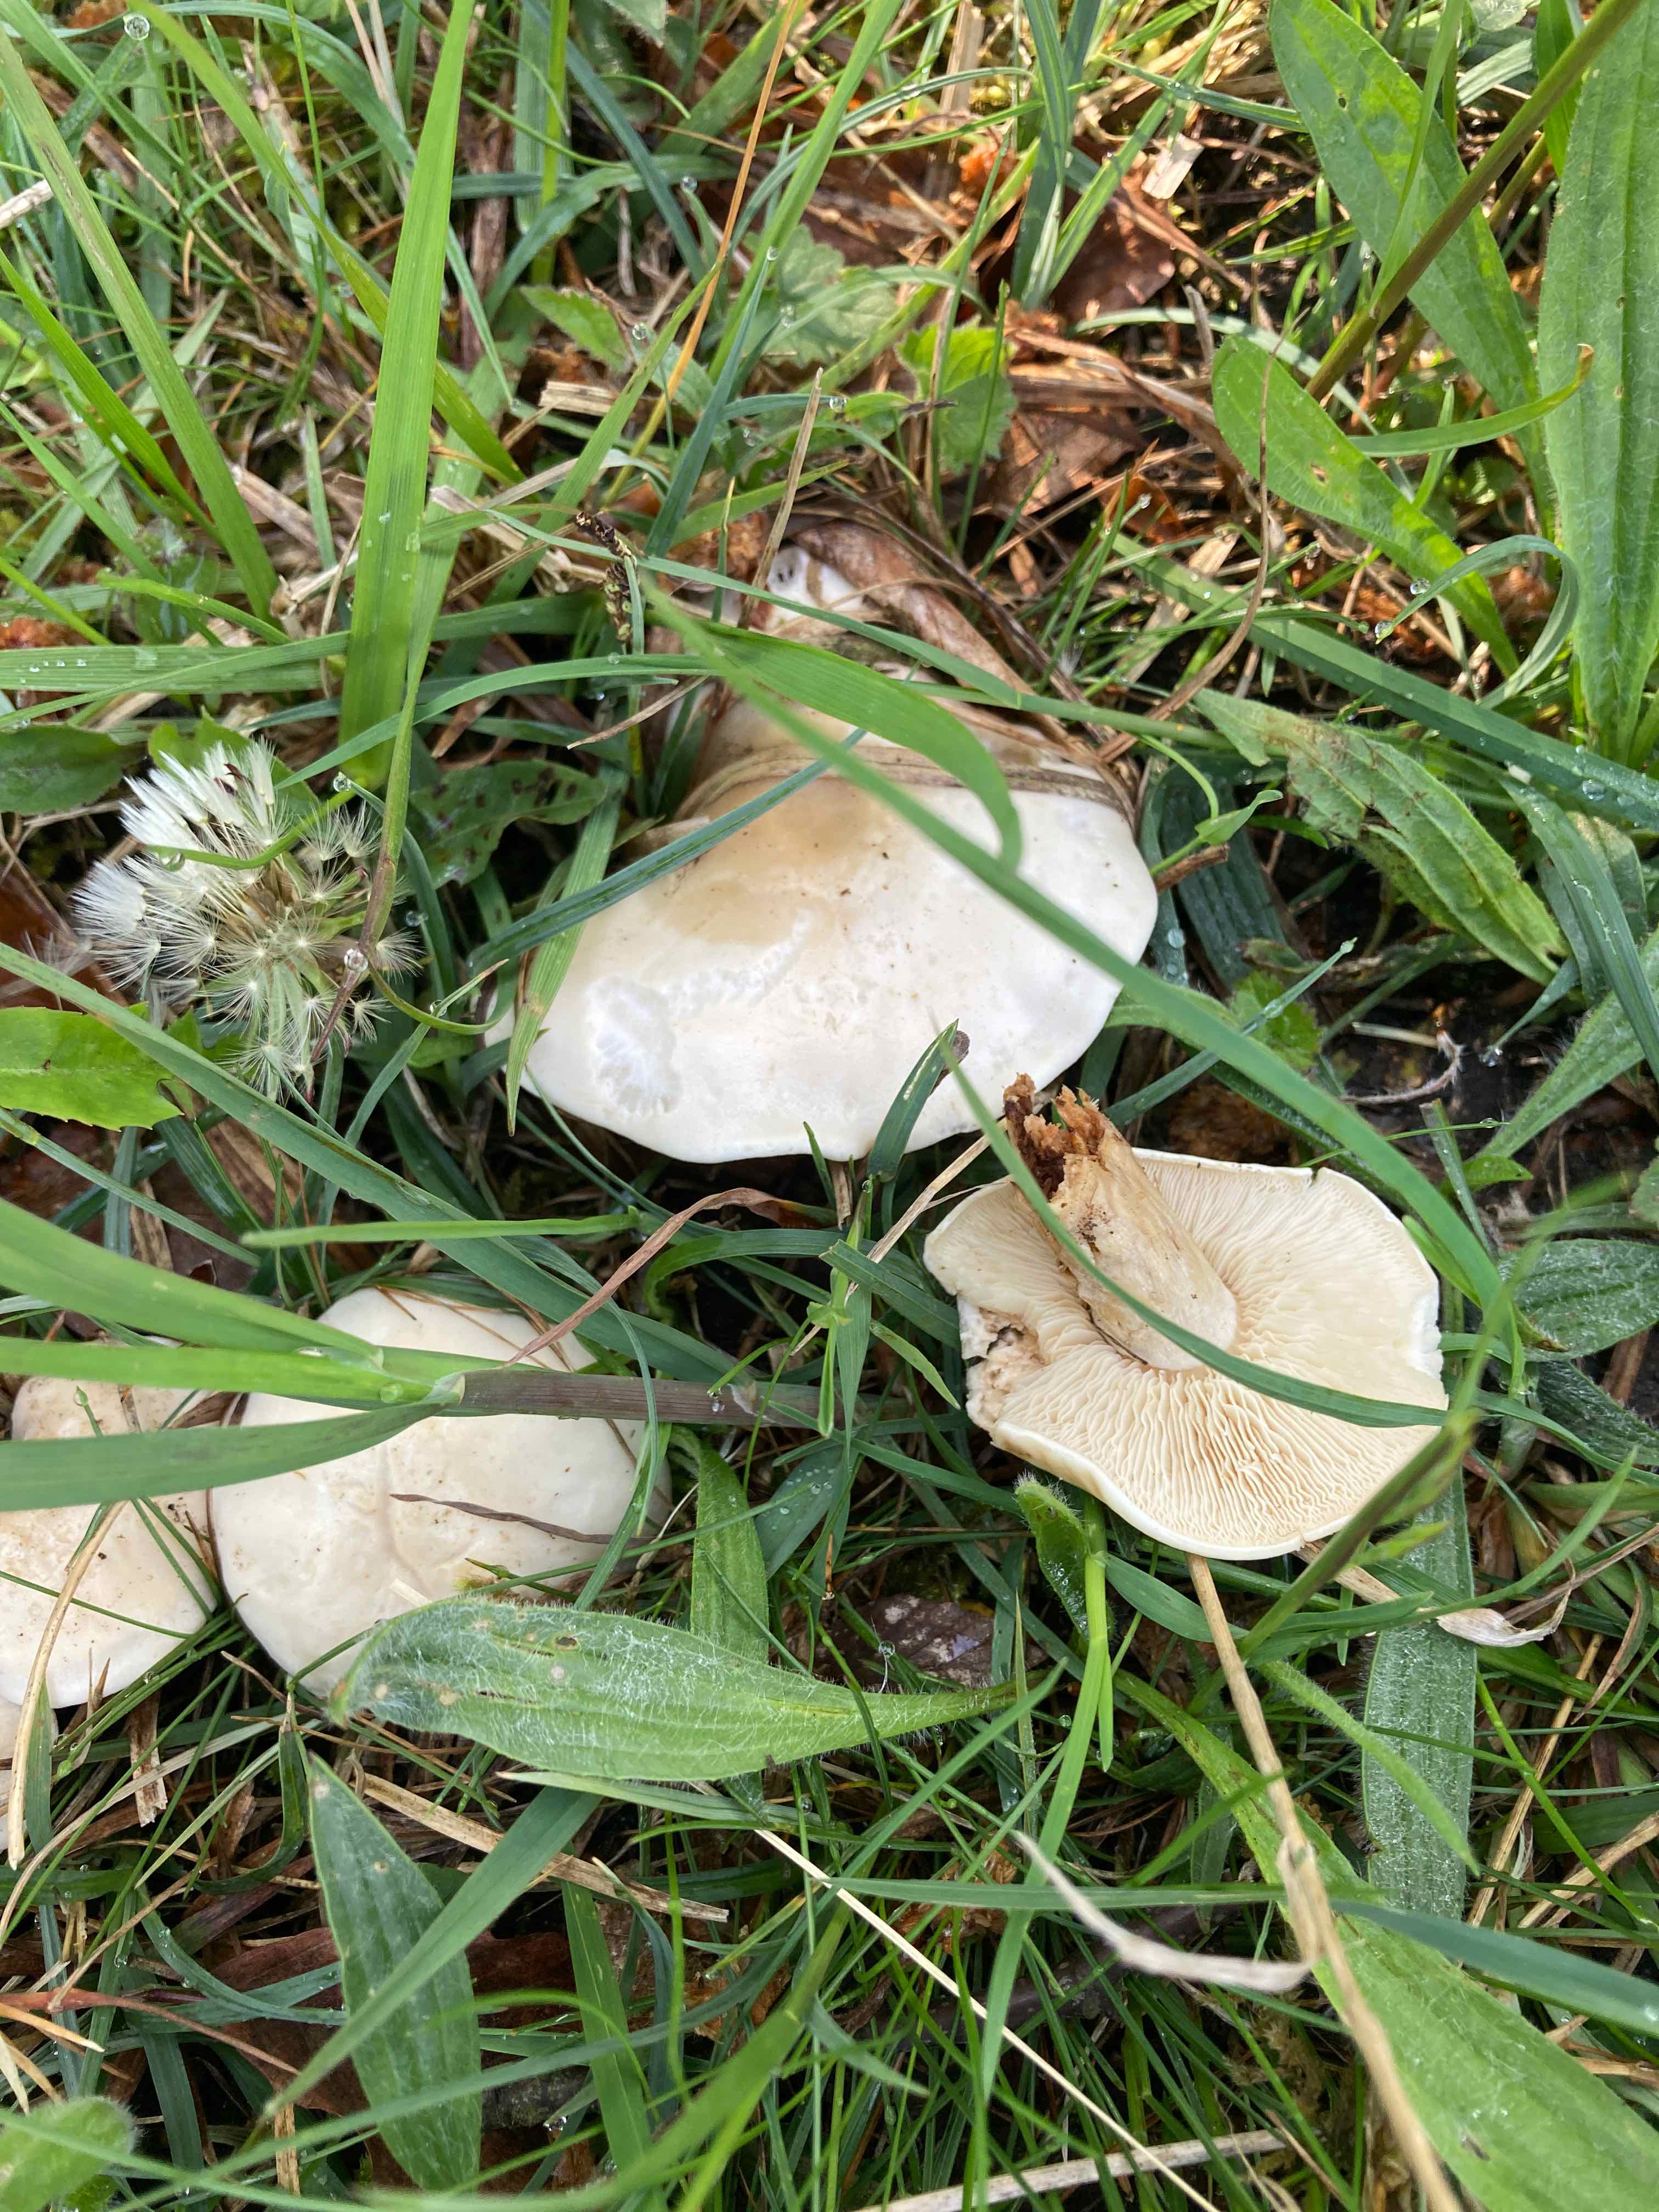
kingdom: Fungi
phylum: Basidiomycota
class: Agaricomycetes
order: Agaricales
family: Lyophyllaceae
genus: Calocybe
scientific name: Calocybe gambosa
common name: vårmusseron
